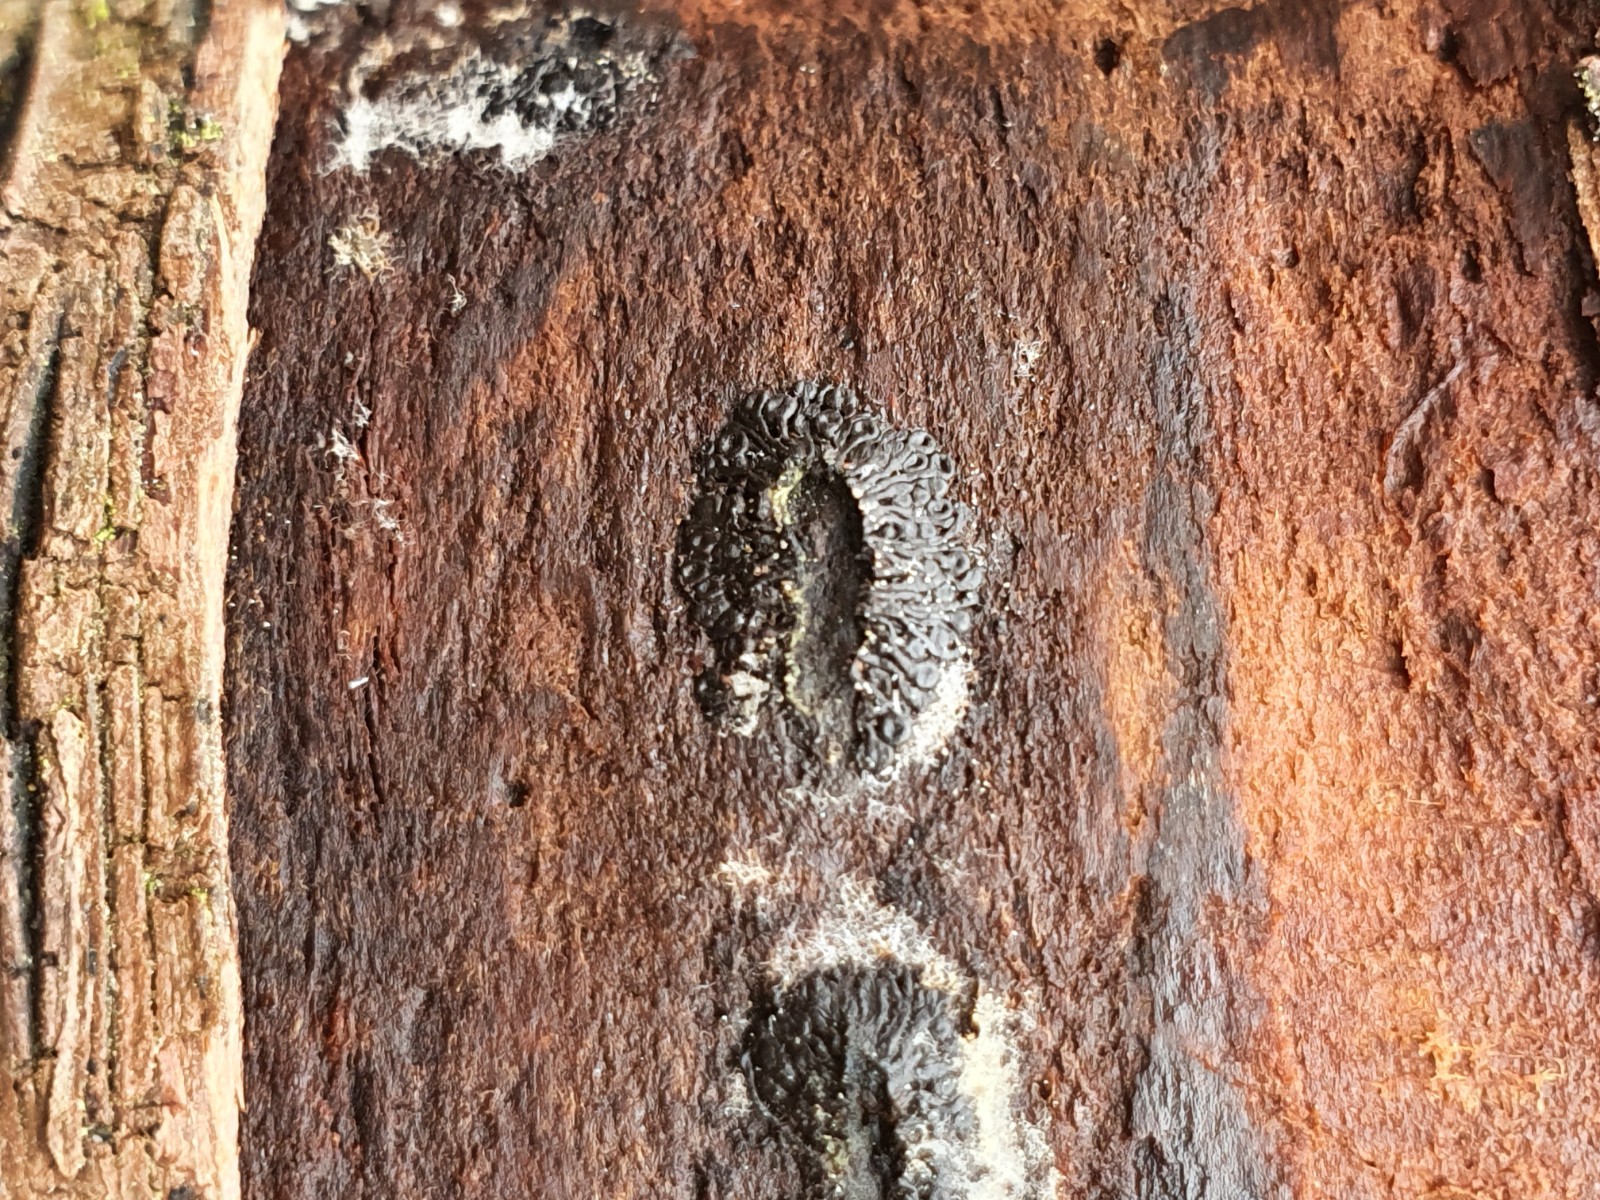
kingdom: Fungi
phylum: Ascomycota
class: Sordariomycetes
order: Calosphaeriales
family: Calosphaeriaceae
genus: Calosphaeria
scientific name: Calosphaeria pulchella
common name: smuk slyngkerne
